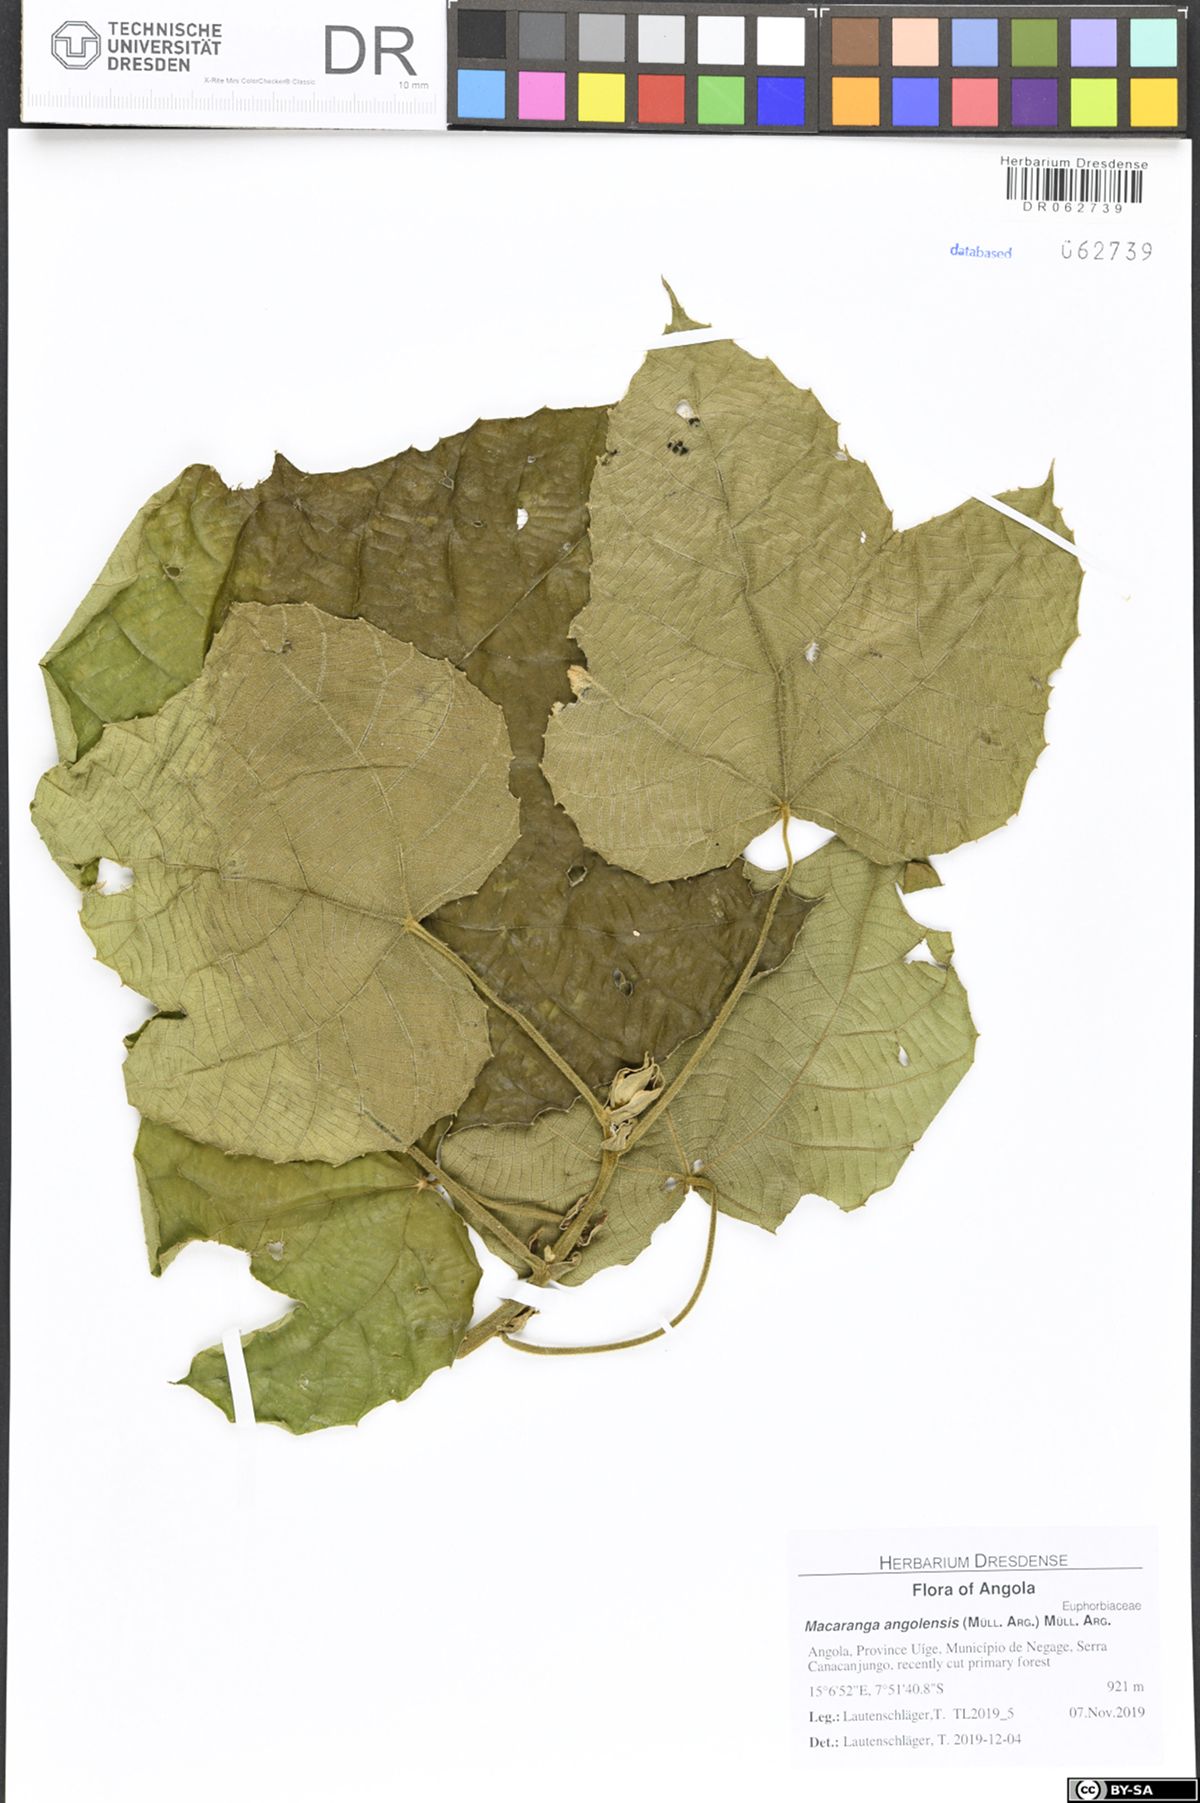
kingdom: Plantae
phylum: Tracheophyta
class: Magnoliopsida
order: Malpighiales
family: Euphorbiaceae
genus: Macaranga
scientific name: Macaranga angolensis
